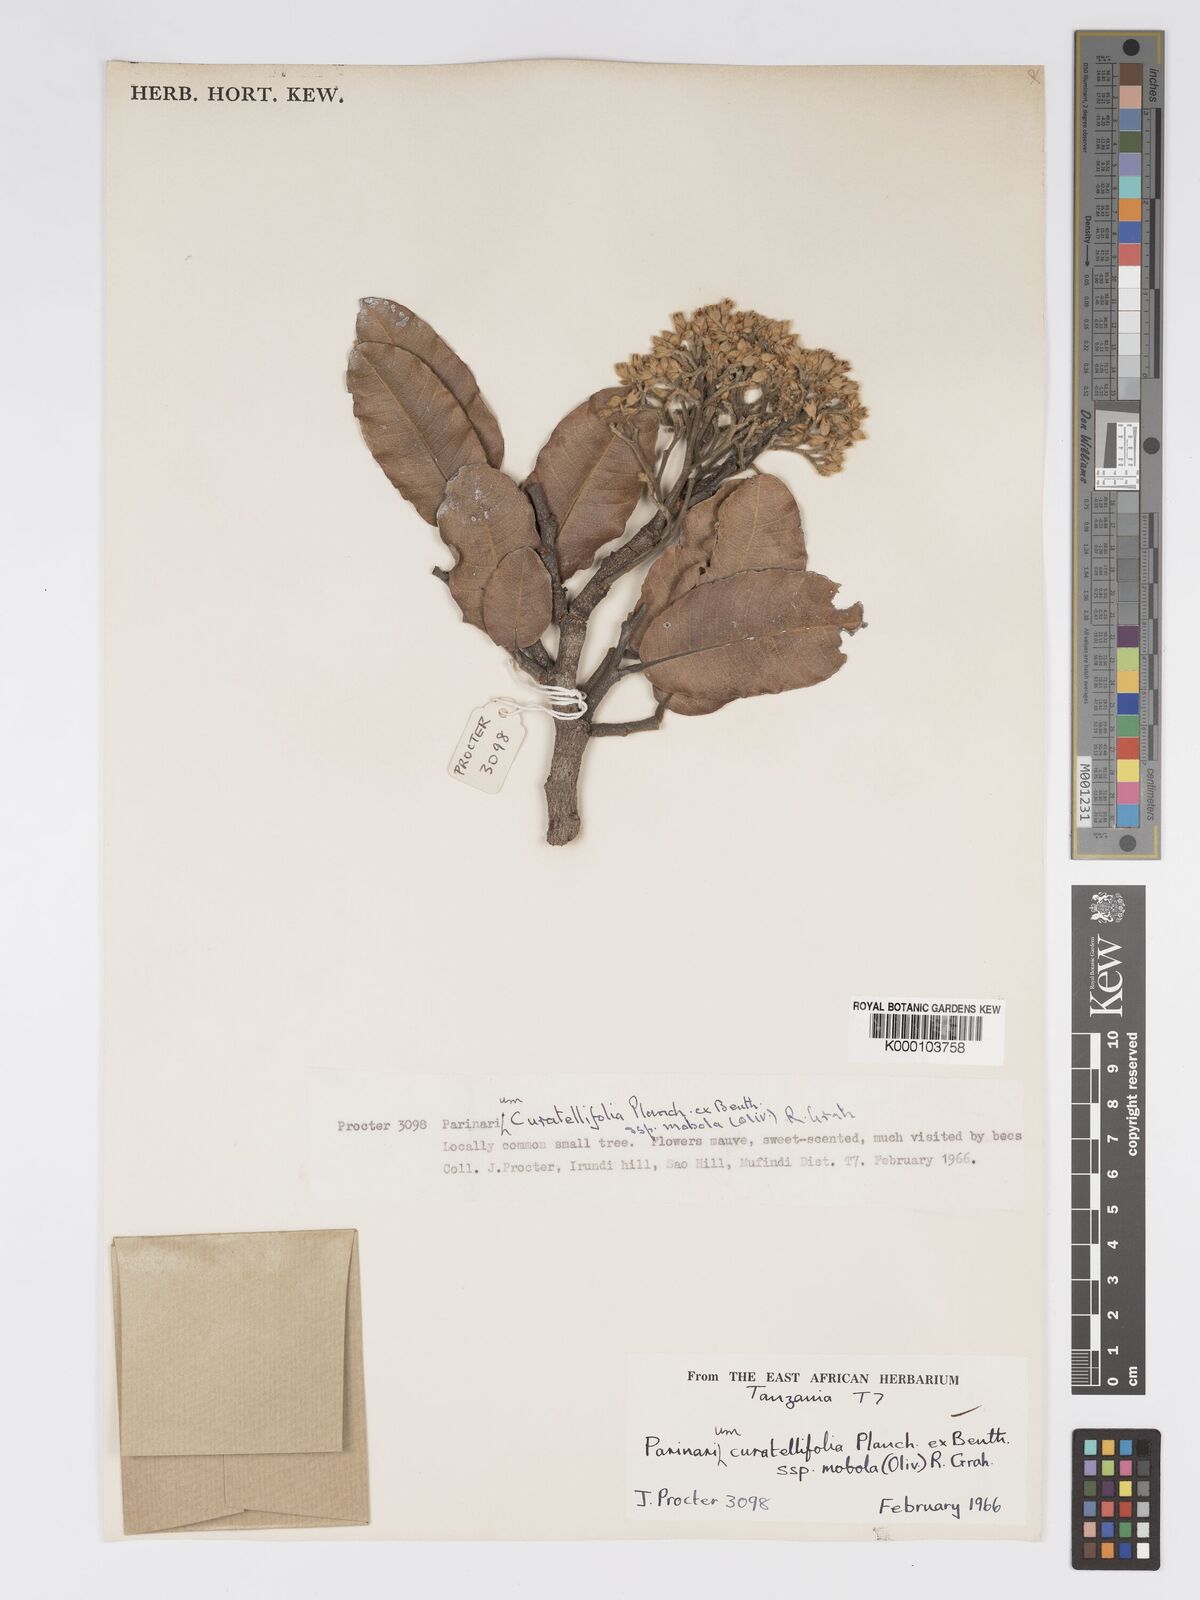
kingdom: Plantae
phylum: Tracheophyta
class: Magnoliopsida
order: Malpighiales
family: Chrysobalanaceae
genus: Parinari
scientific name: Parinari curatellifolia
